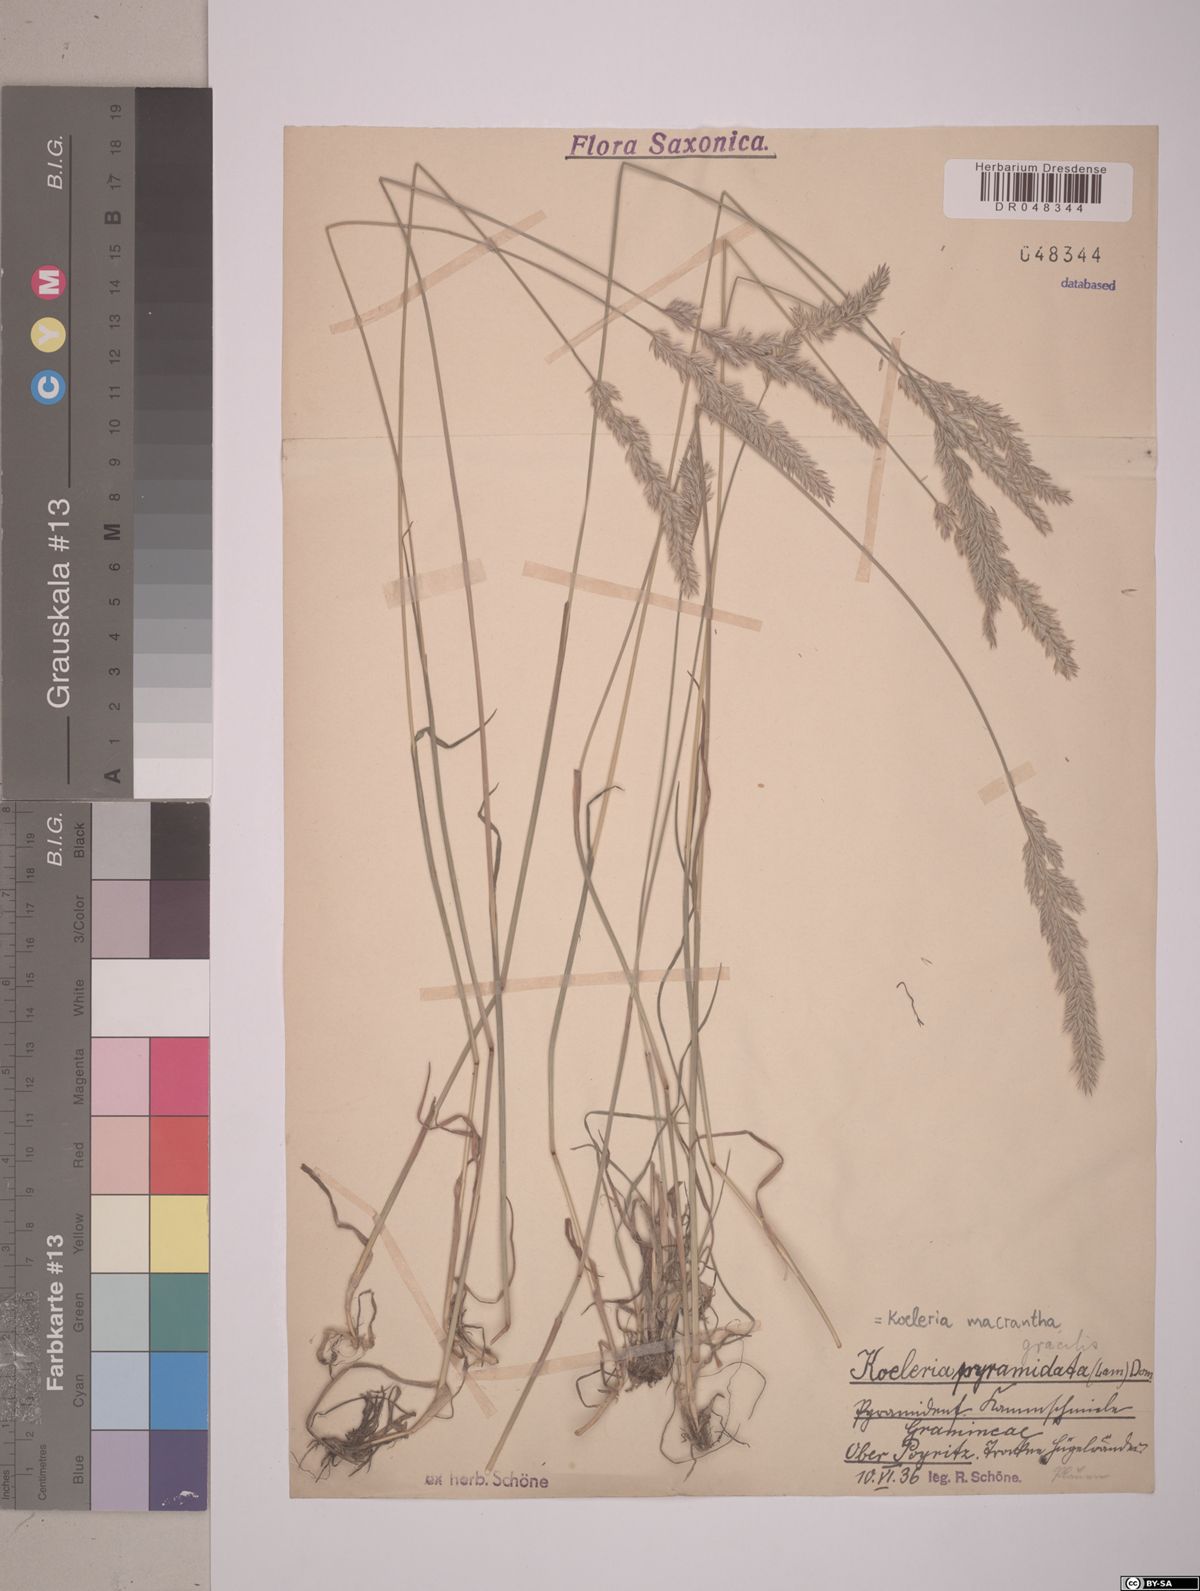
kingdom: Plantae
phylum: Tracheophyta
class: Liliopsida
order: Poales
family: Poaceae
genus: Koeleria
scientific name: Koeleria macrantha
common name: Crested hair-grass
